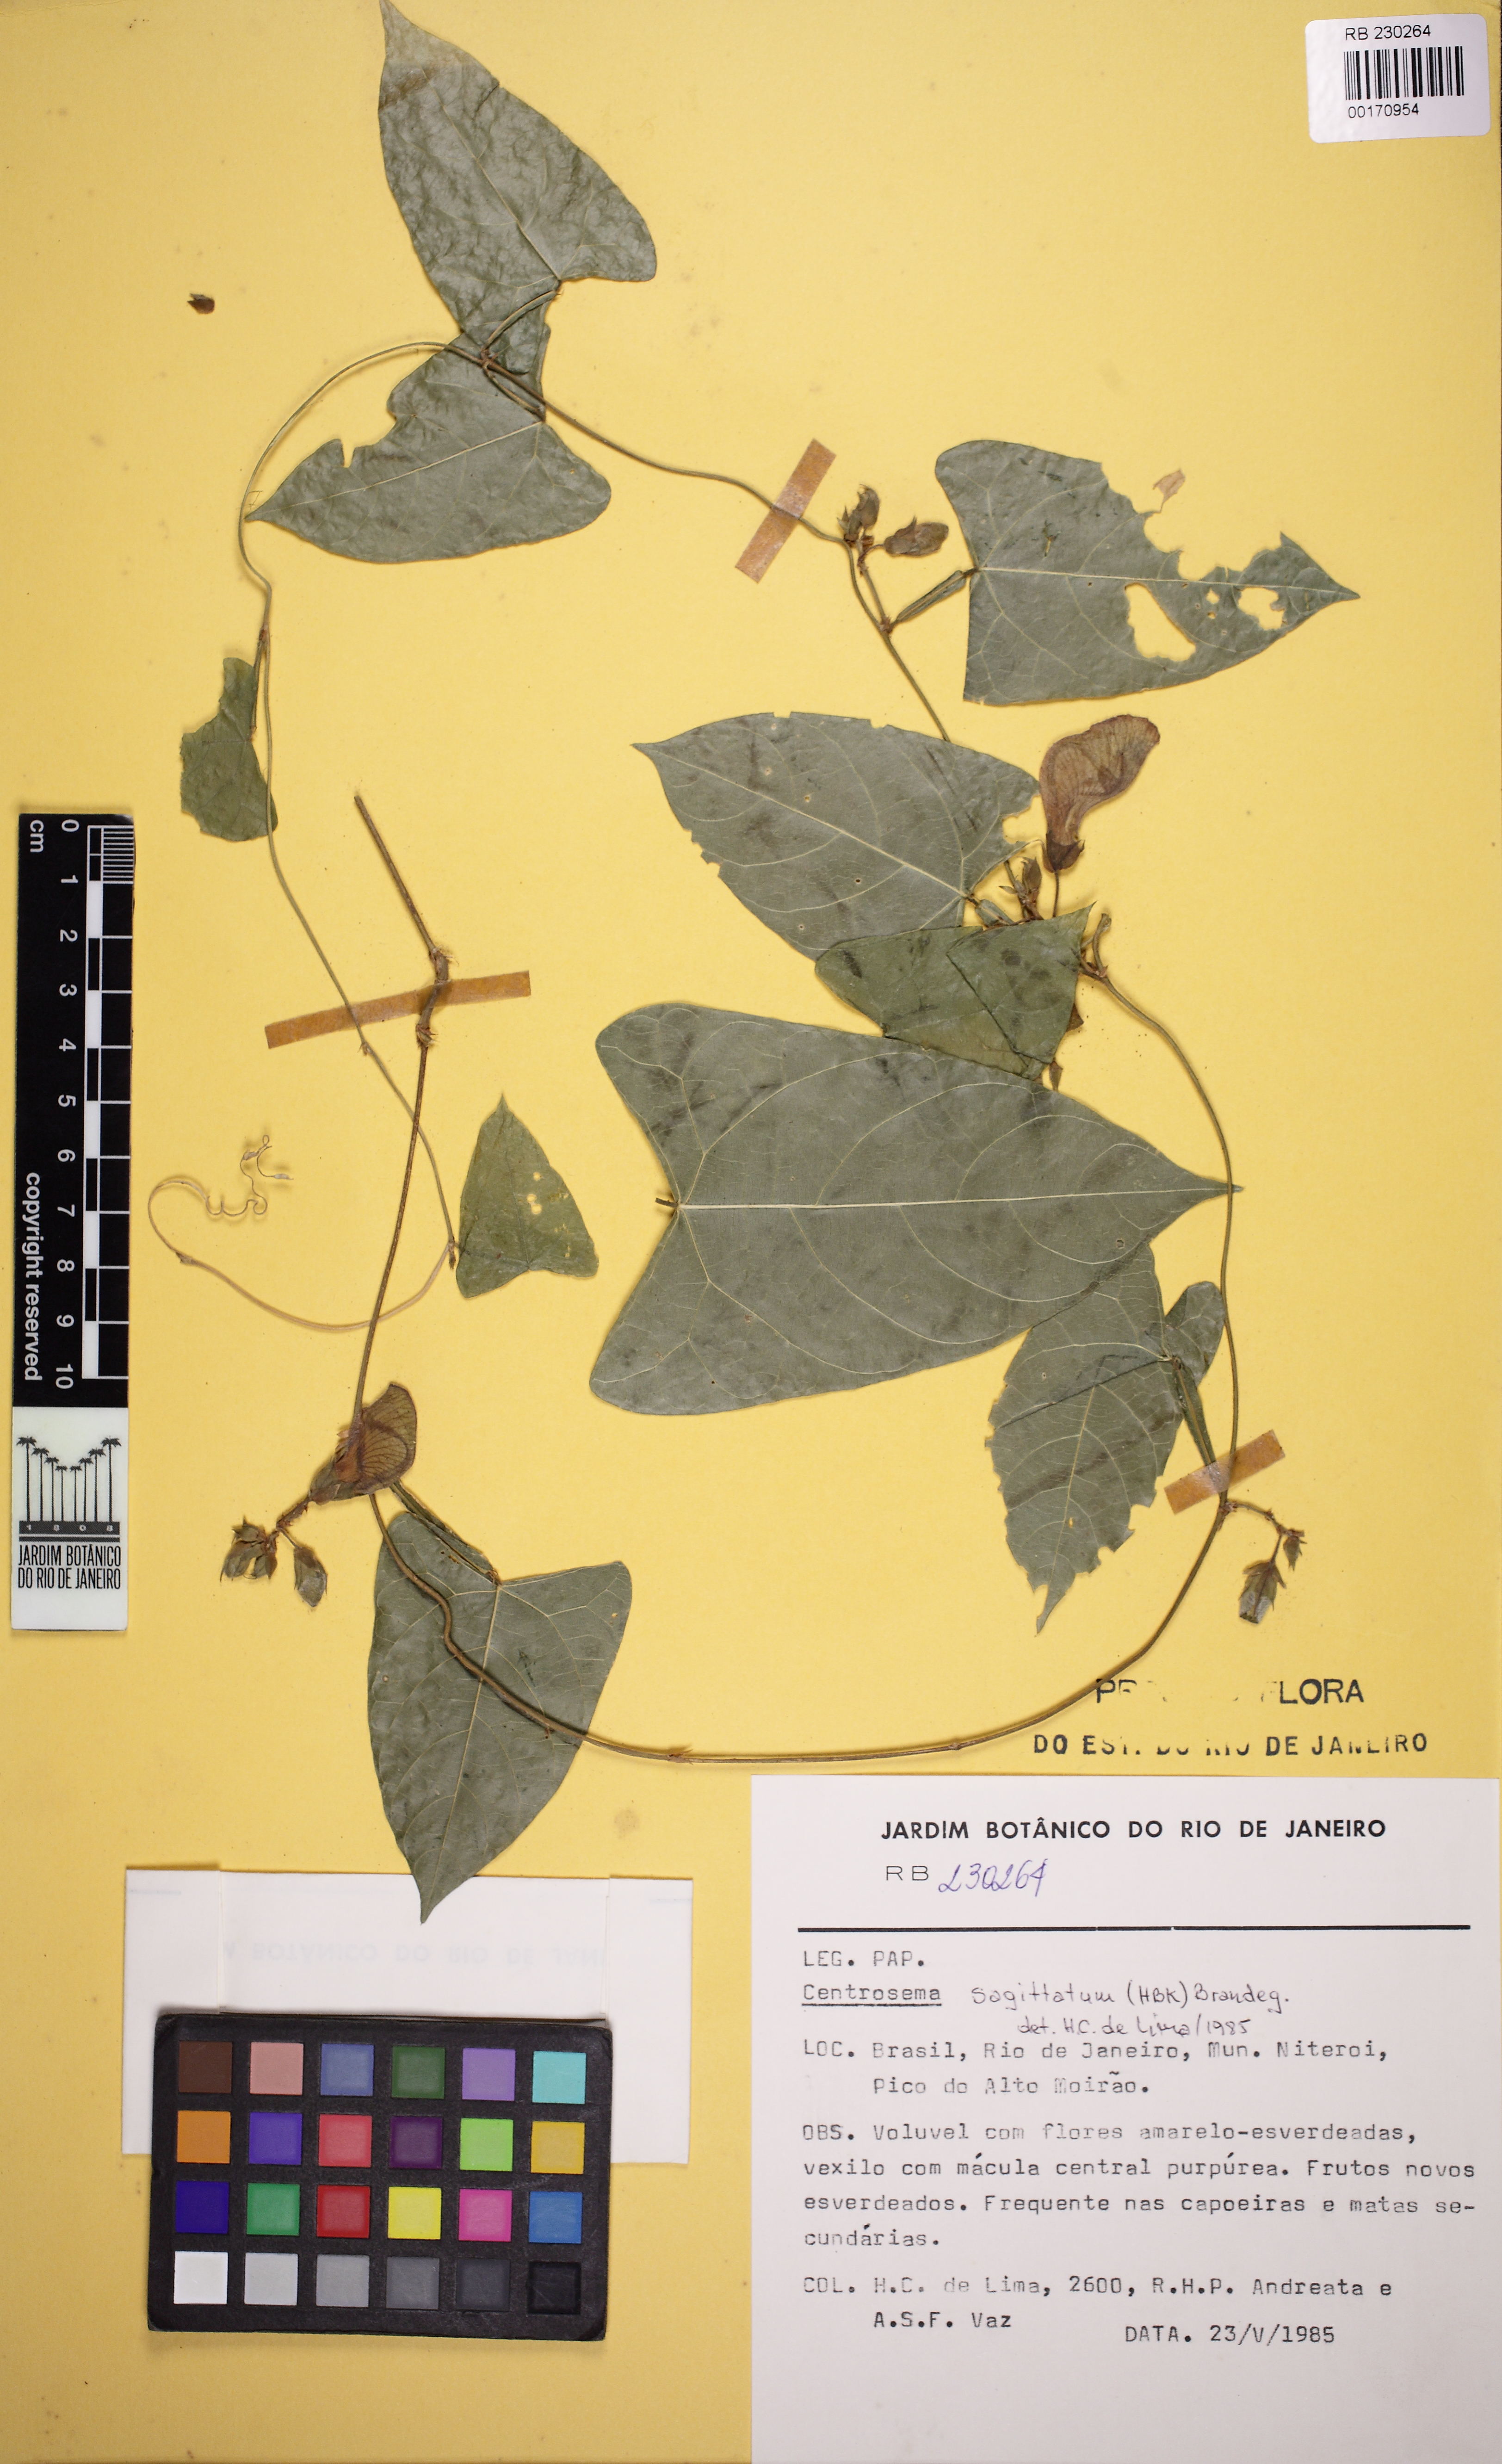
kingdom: Plantae
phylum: Tracheophyta
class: Magnoliopsida
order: Fabales
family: Fabaceae
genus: Centrosema
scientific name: Centrosema sagittatum
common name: Arrowleaf butterfly pea
